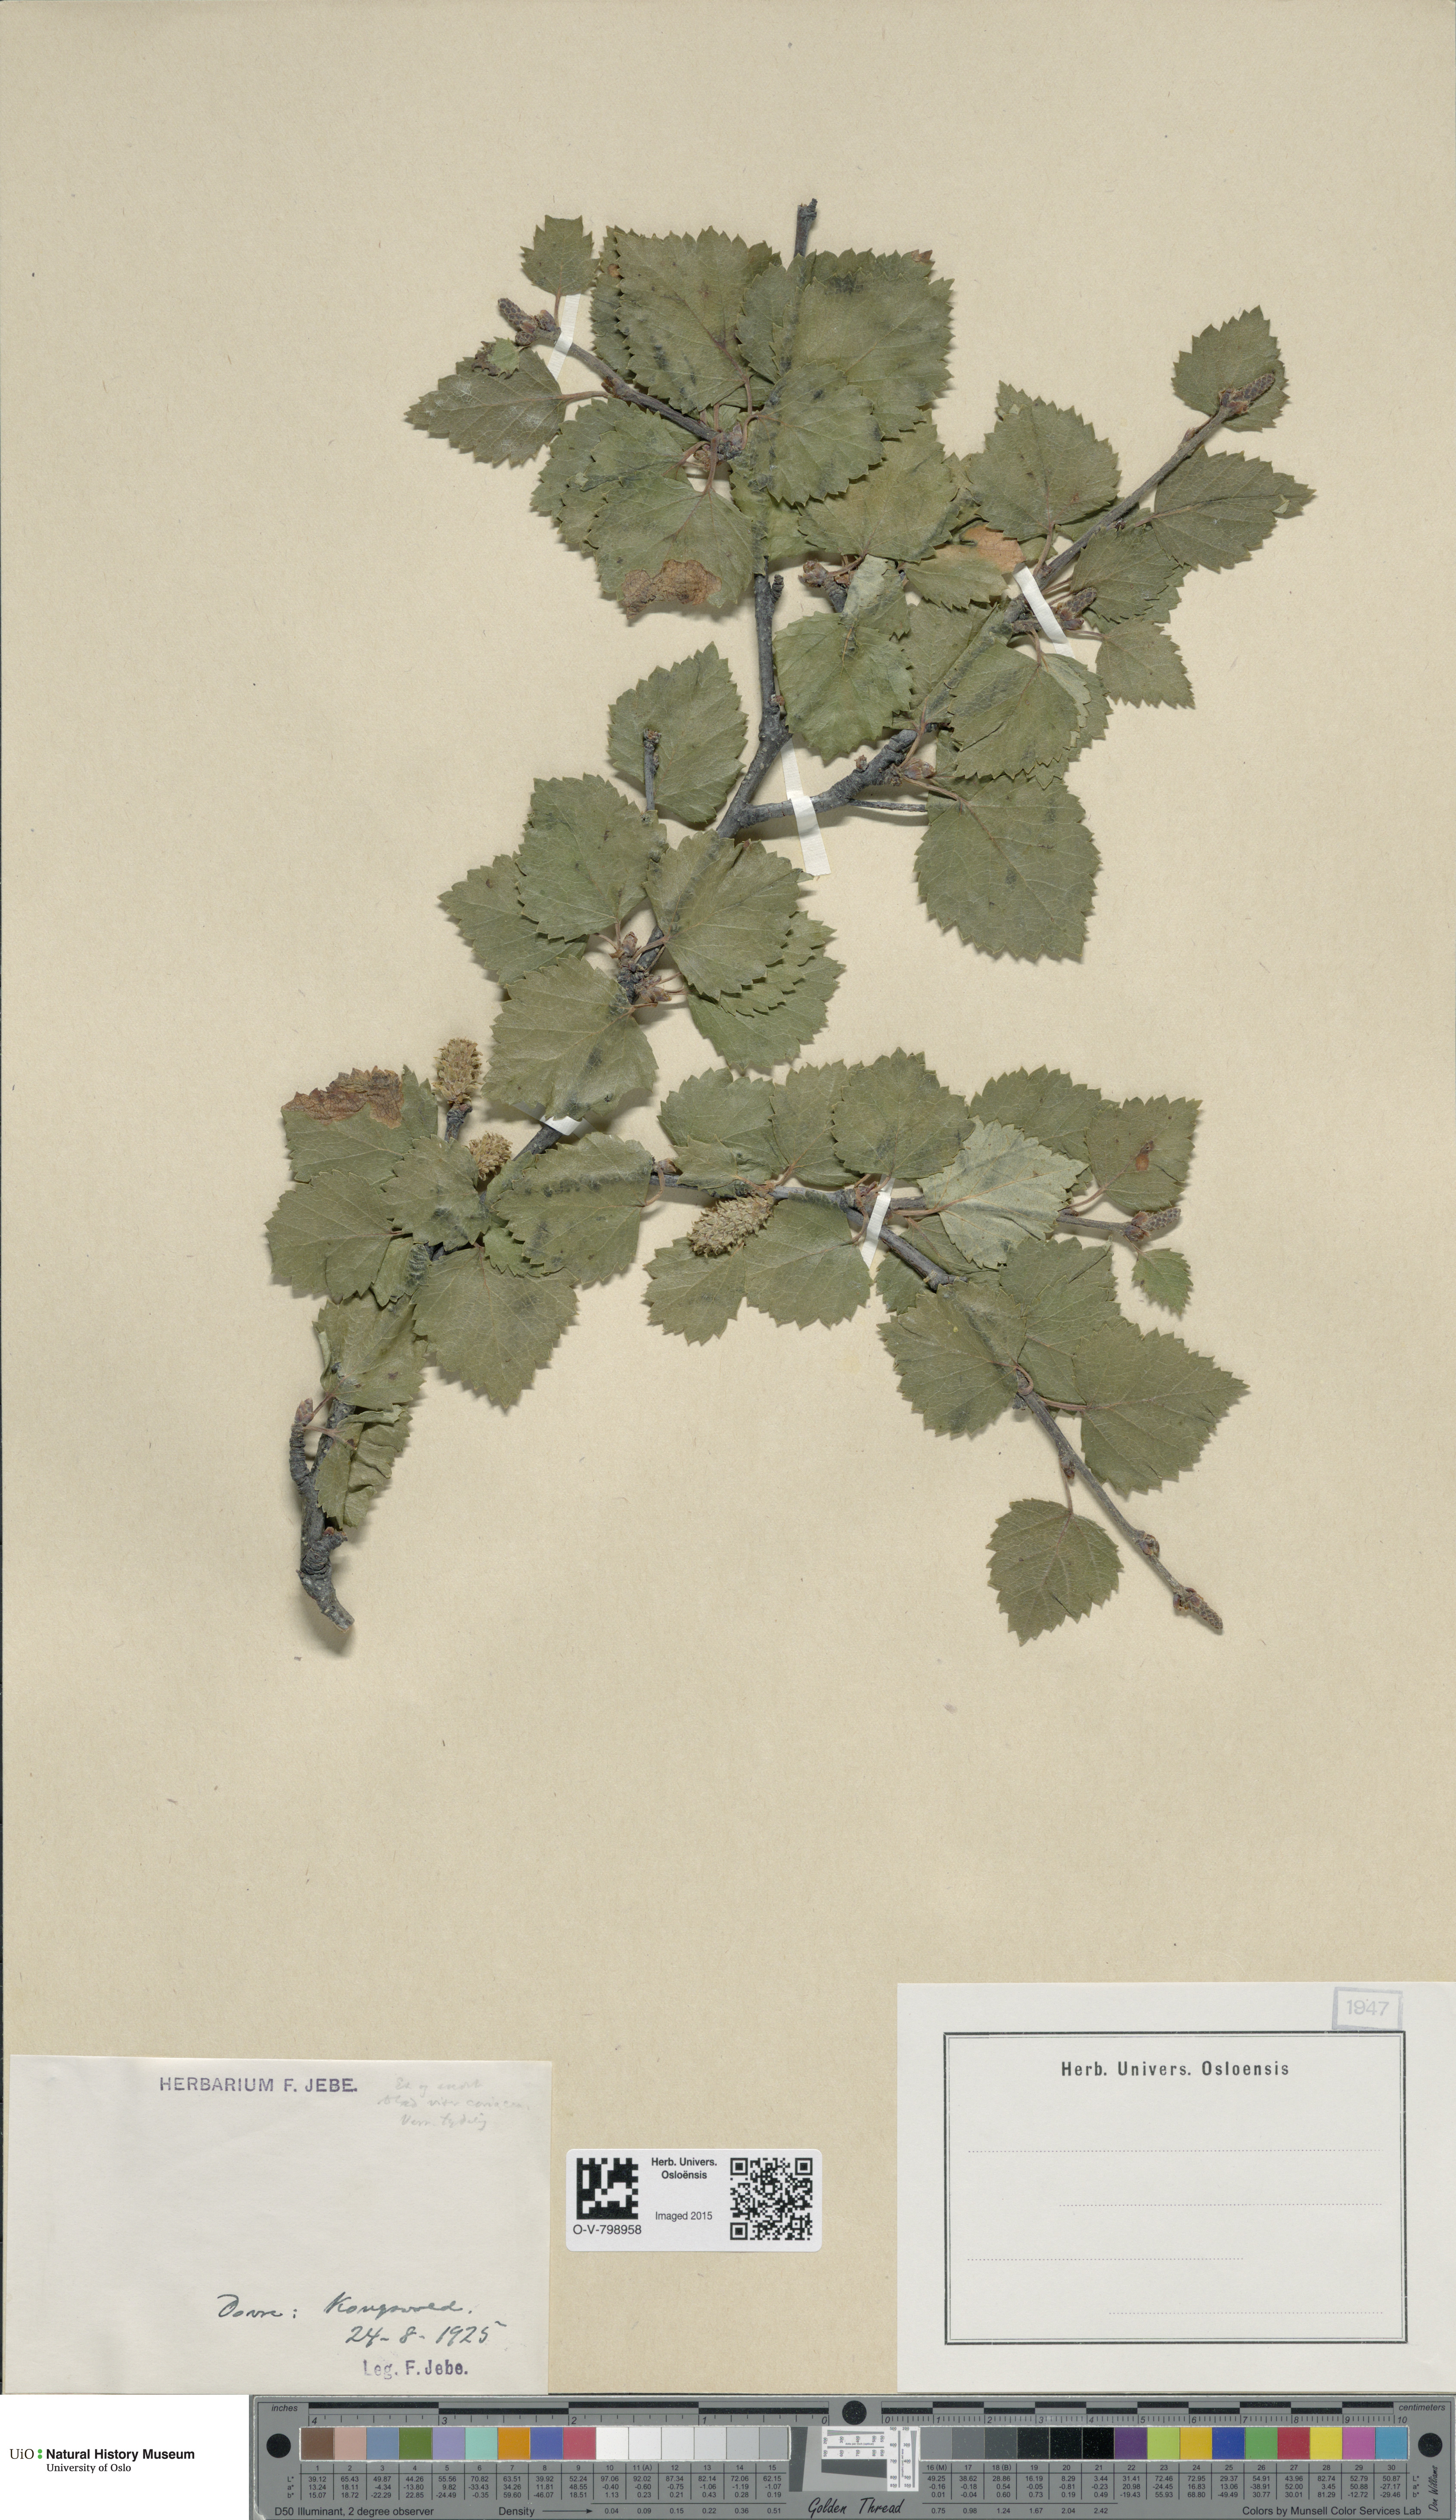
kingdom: Plantae
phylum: Tracheophyta
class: Magnoliopsida
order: Fagales
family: Betulaceae
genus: Betula
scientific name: Betula
